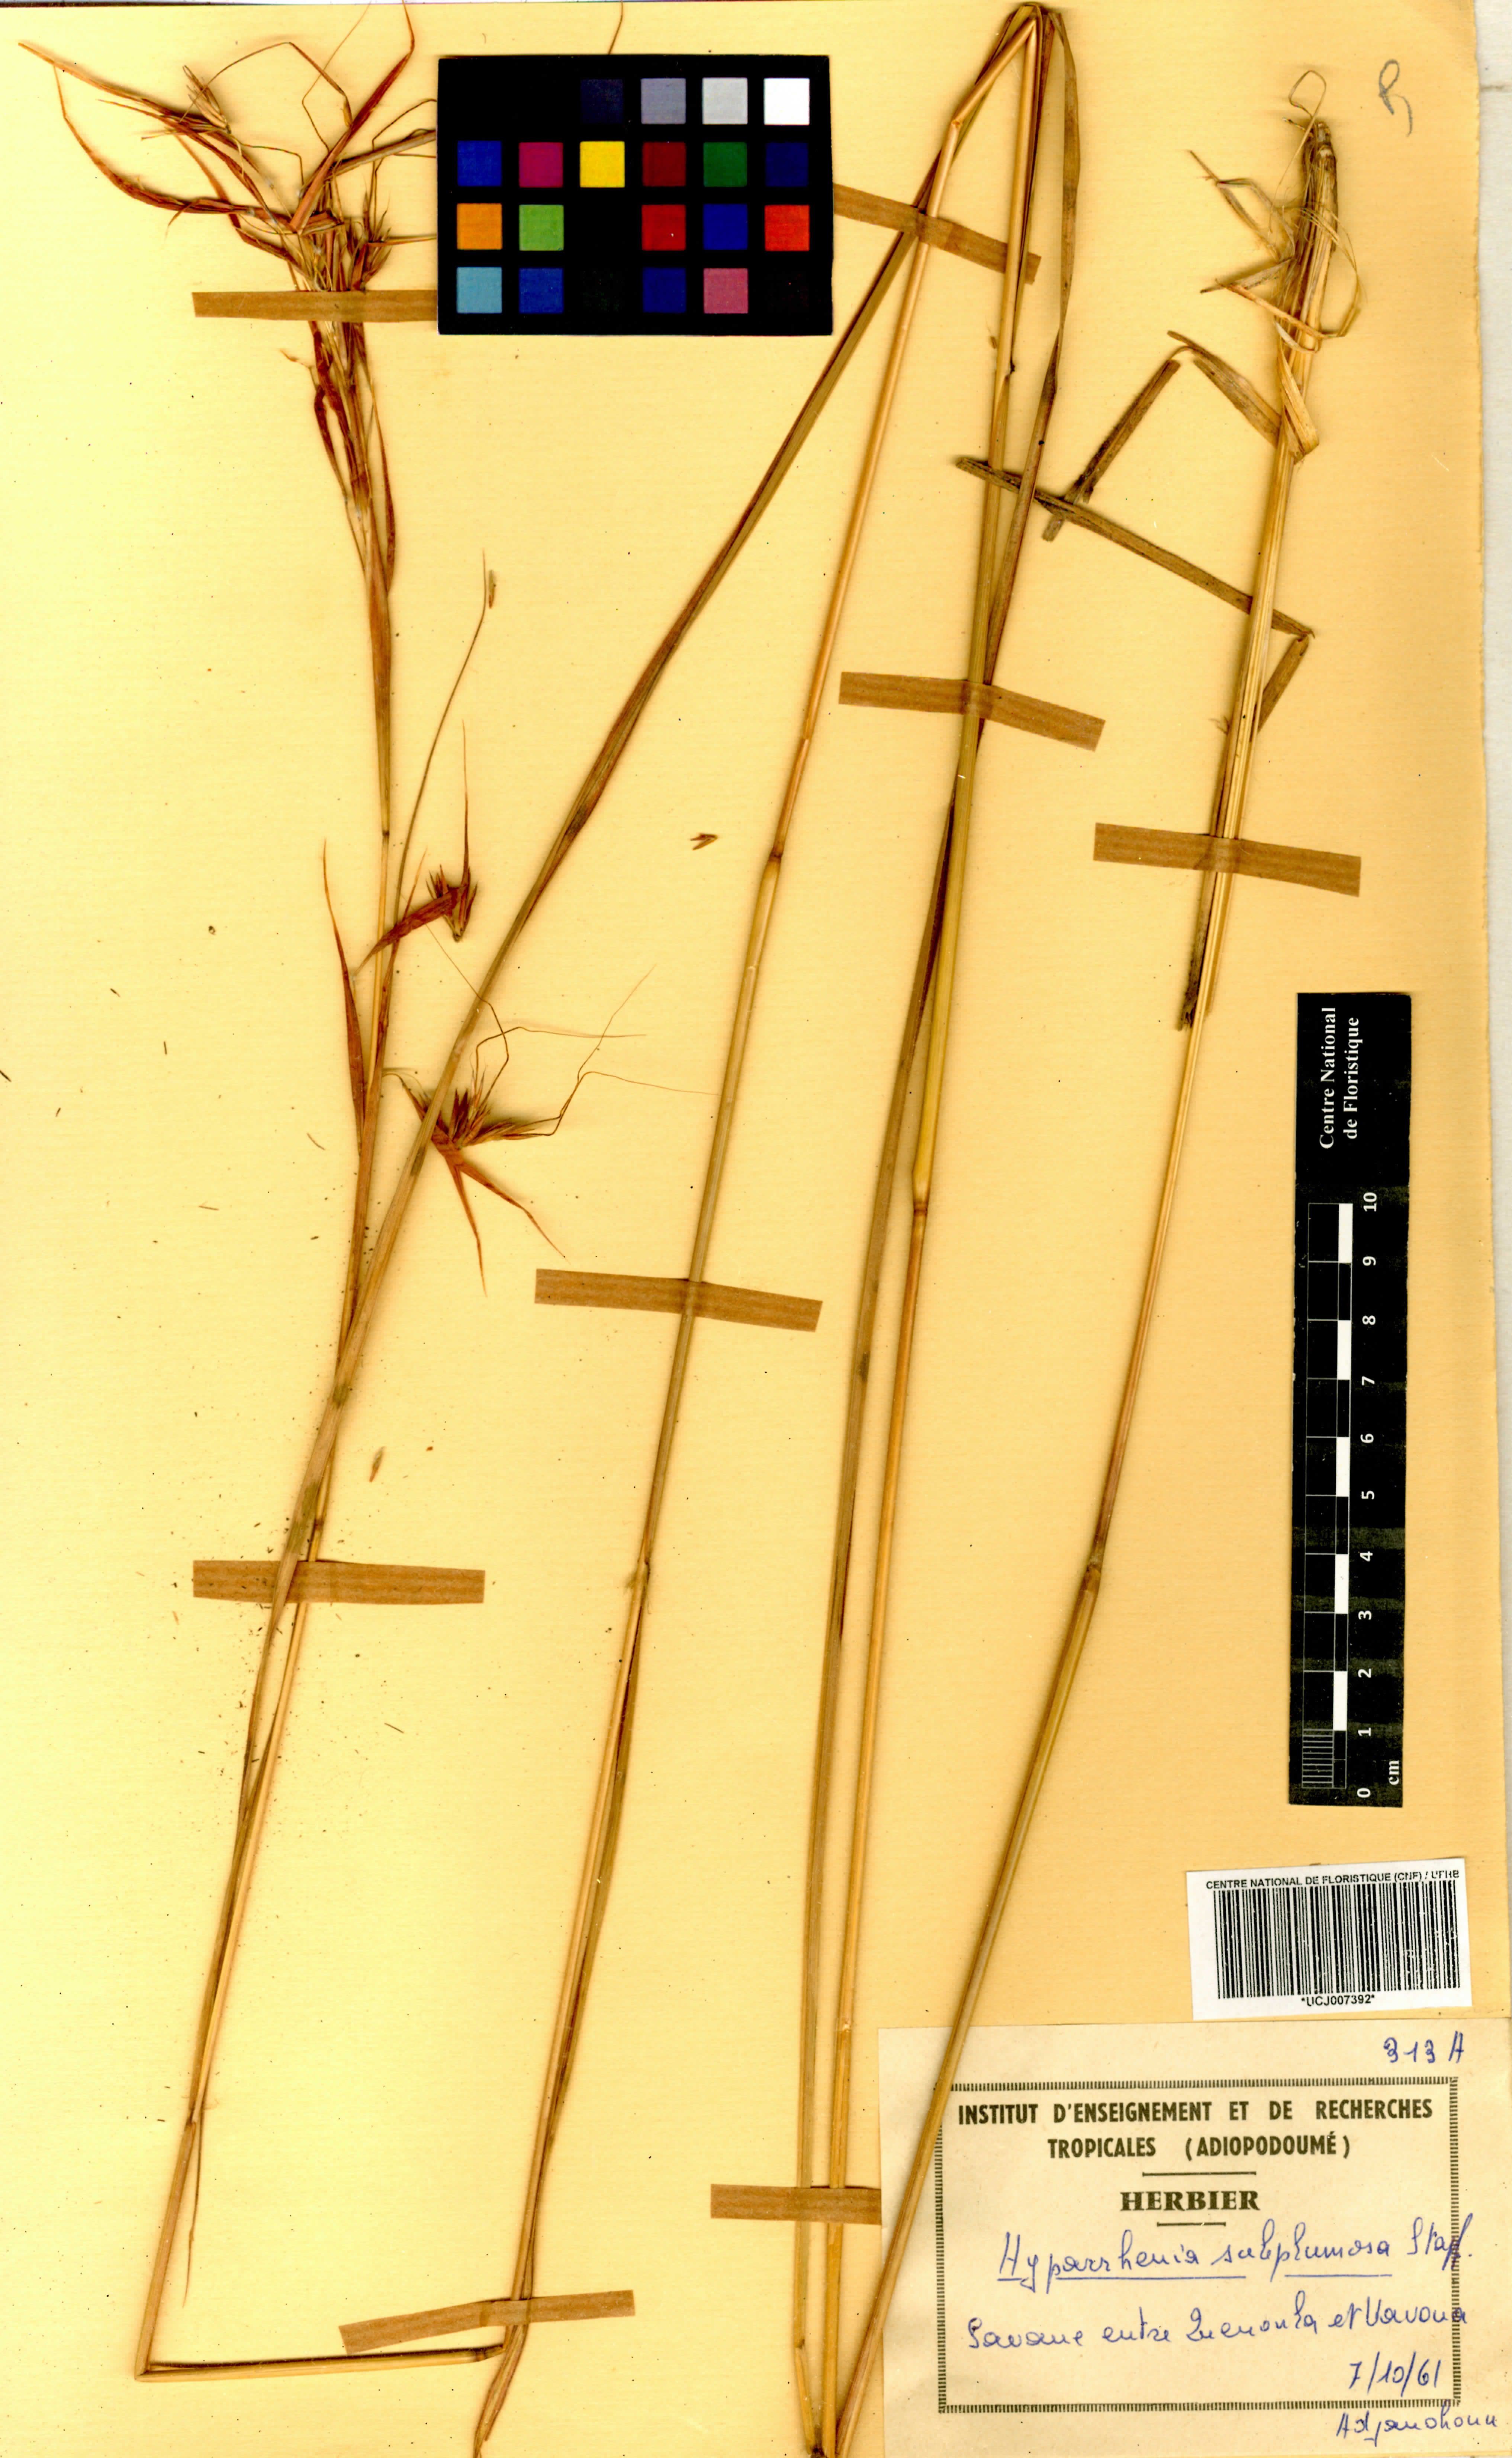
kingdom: Plantae
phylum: Tracheophyta
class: Liliopsida
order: Poales
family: Poaceae
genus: Hyparrhenia
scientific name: Hyparrhenia subplumosa
